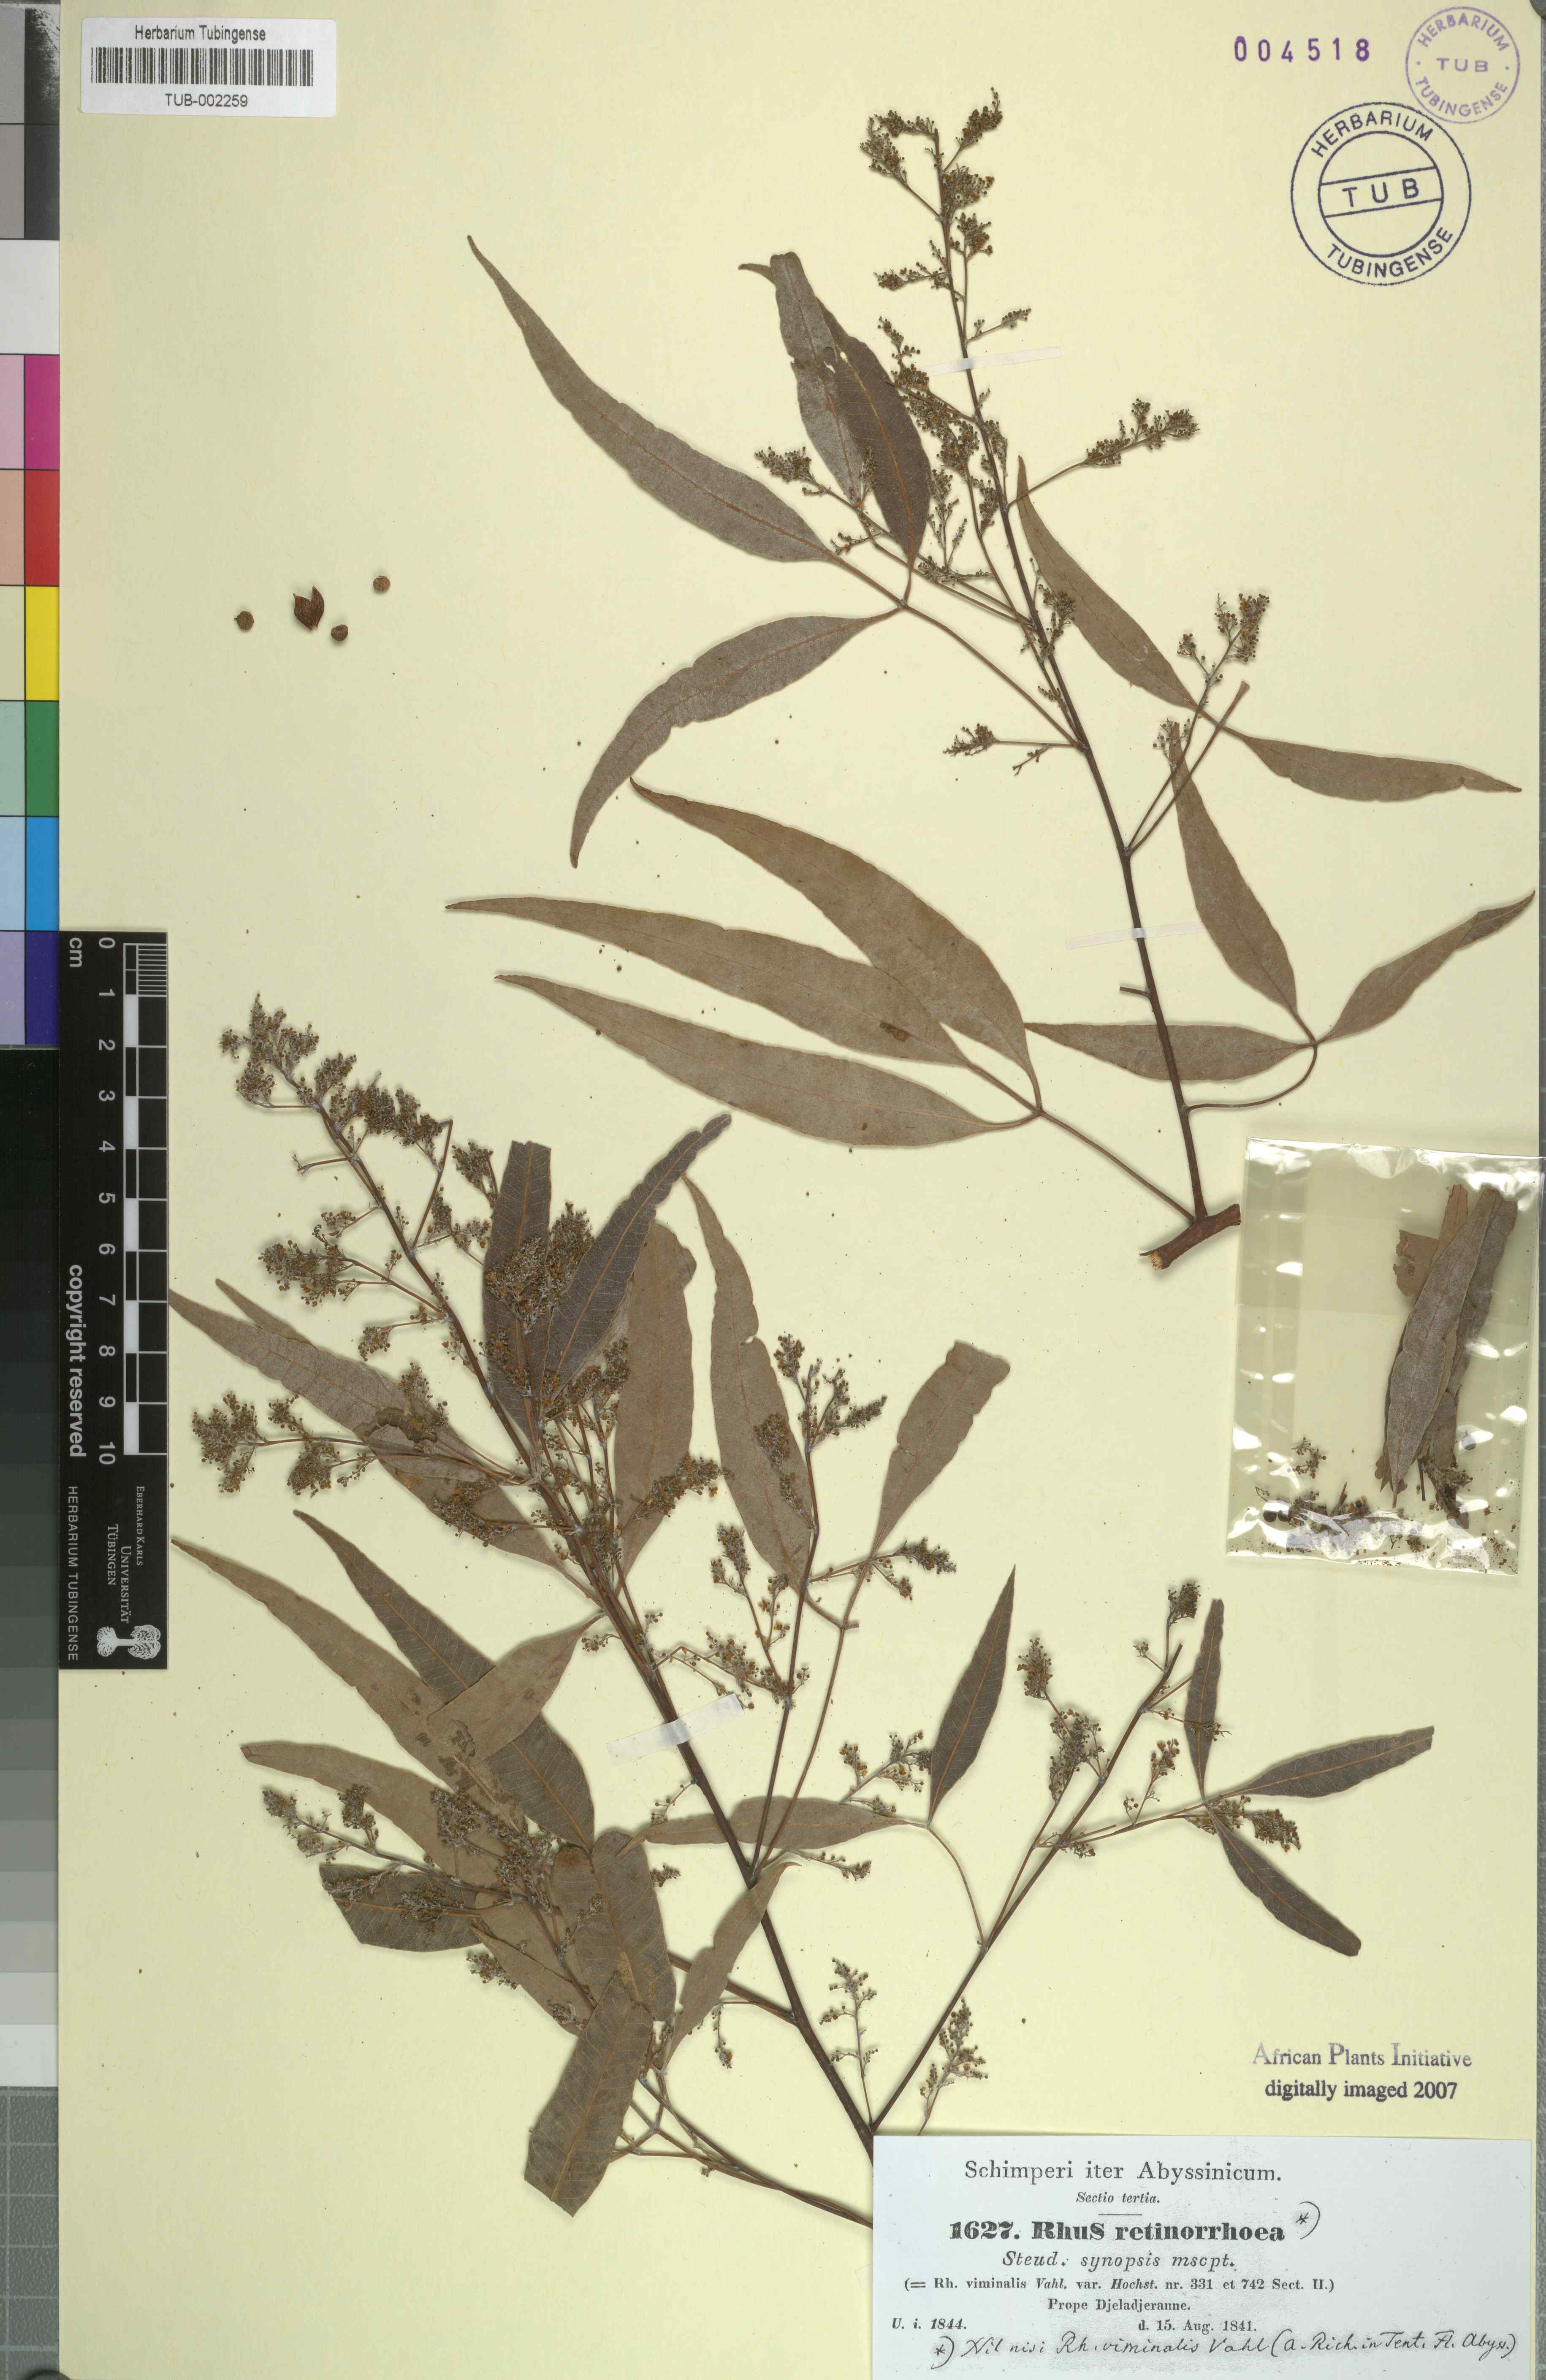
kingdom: Plantae
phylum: Tracheophyta
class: Magnoliopsida
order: Sapindales
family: Anacardiaceae
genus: Rhus
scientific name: Rhus retinorrhaea
